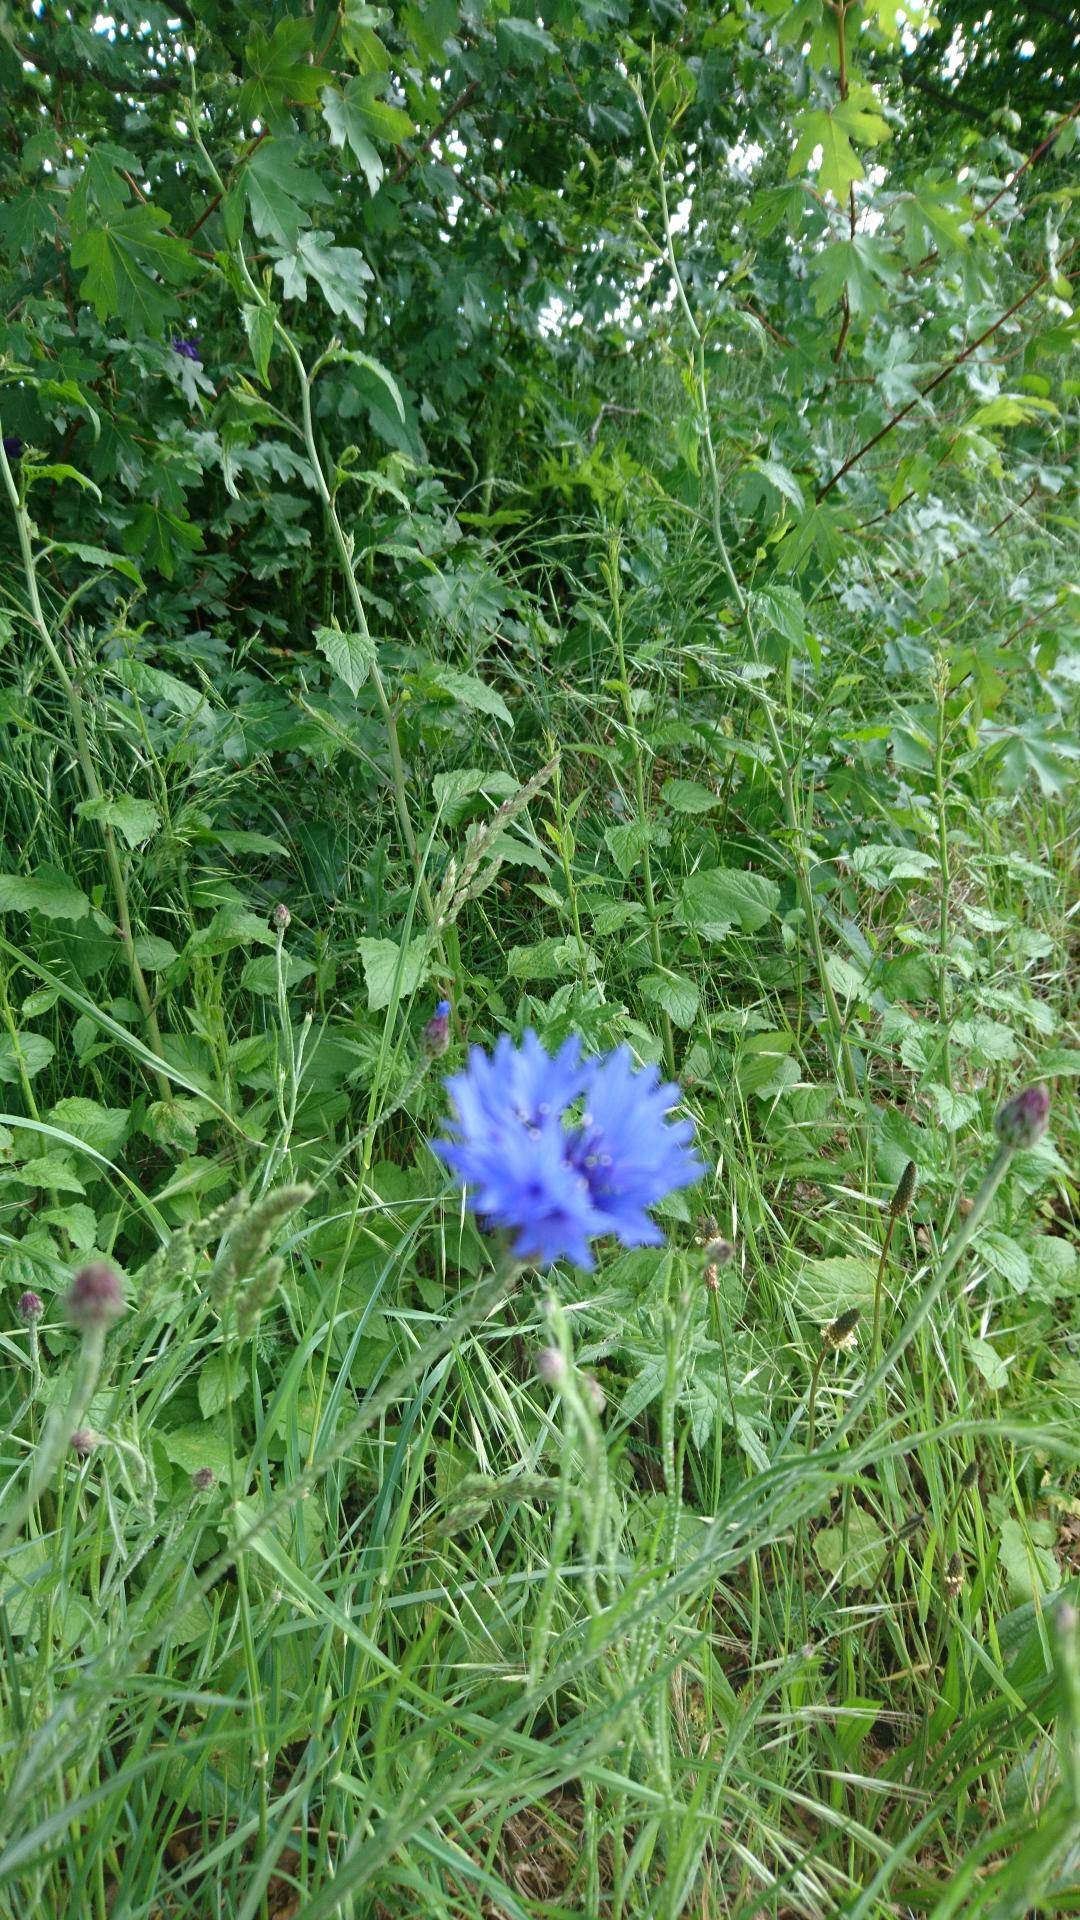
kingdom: Plantae
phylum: Tracheophyta
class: Magnoliopsida
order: Asterales
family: Asteraceae
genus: Centaurea
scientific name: Centaurea cyanus
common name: Kornblomst
